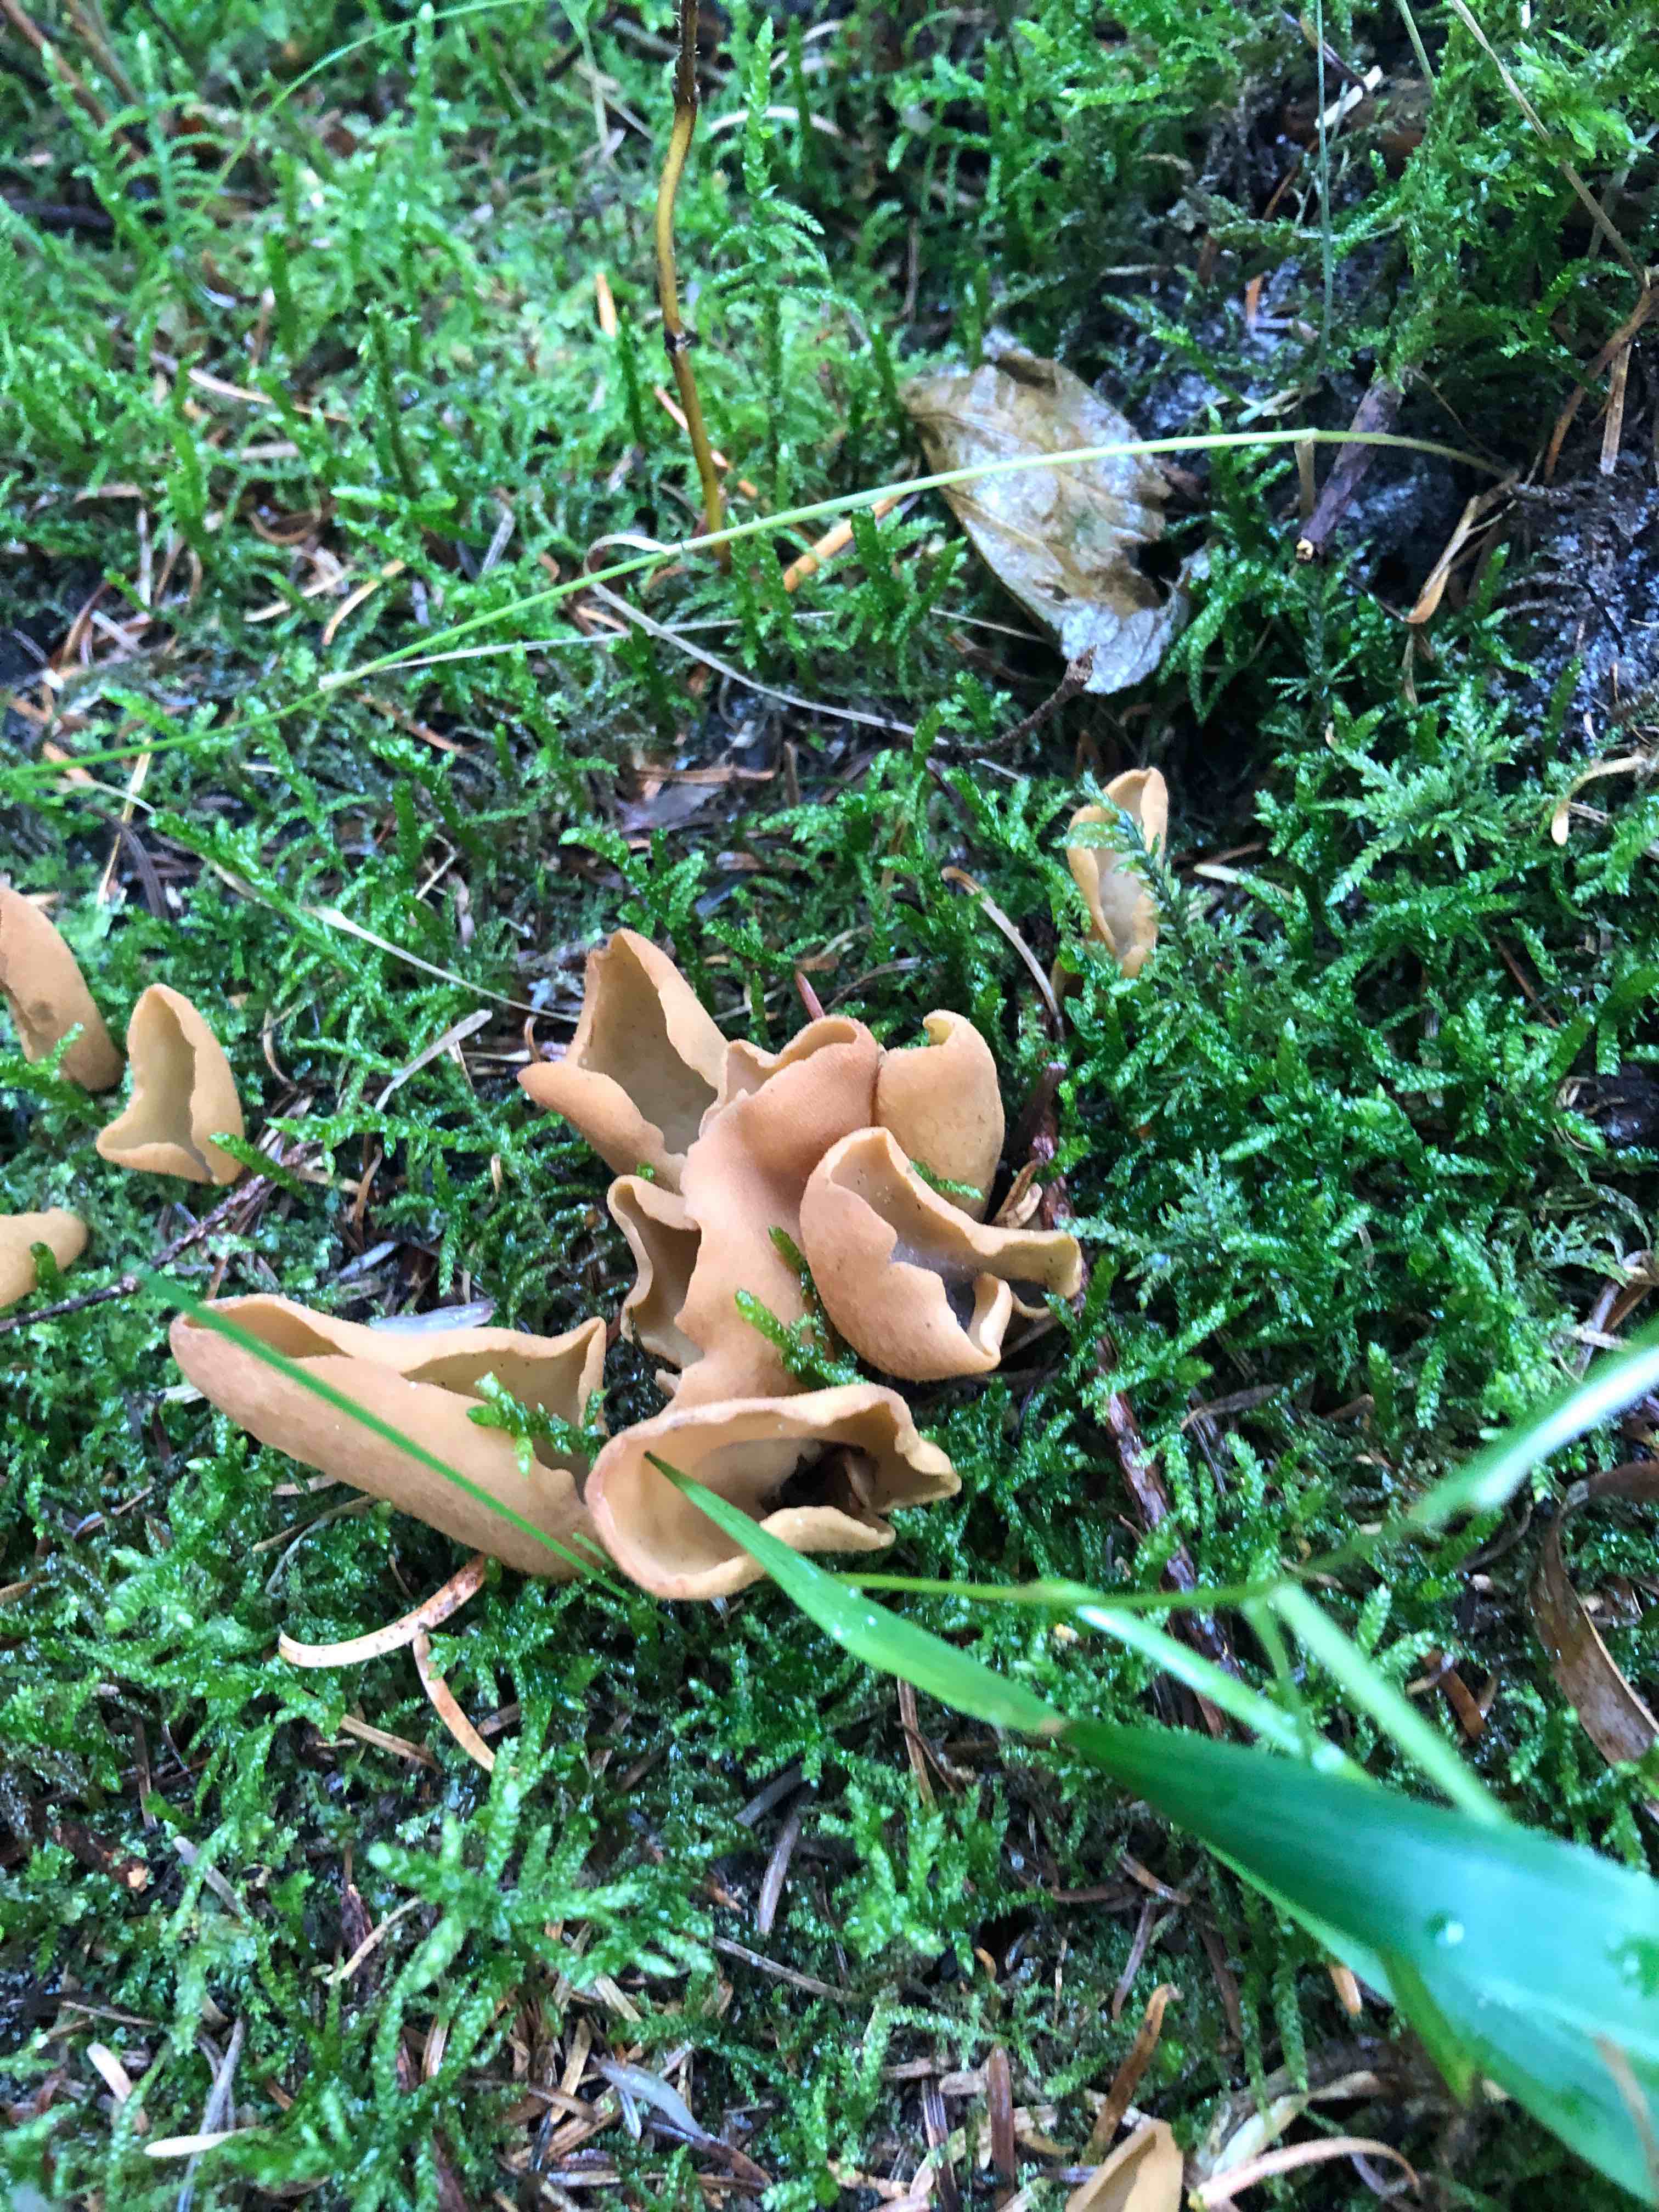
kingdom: Fungi
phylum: Ascomycota
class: Pezizomycetes
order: Pezizales
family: Otideaceae
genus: Otidea
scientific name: Otidea
